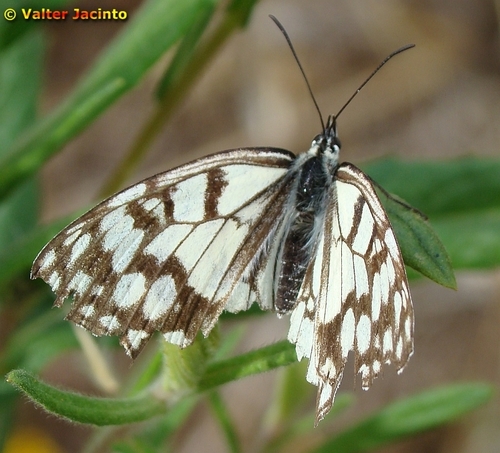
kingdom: Animalia
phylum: Arthropoda
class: Insecta
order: Lepidoptera
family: Nymphalidae
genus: Melanargia
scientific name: Melanargia ines
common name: Spanish marbled white
